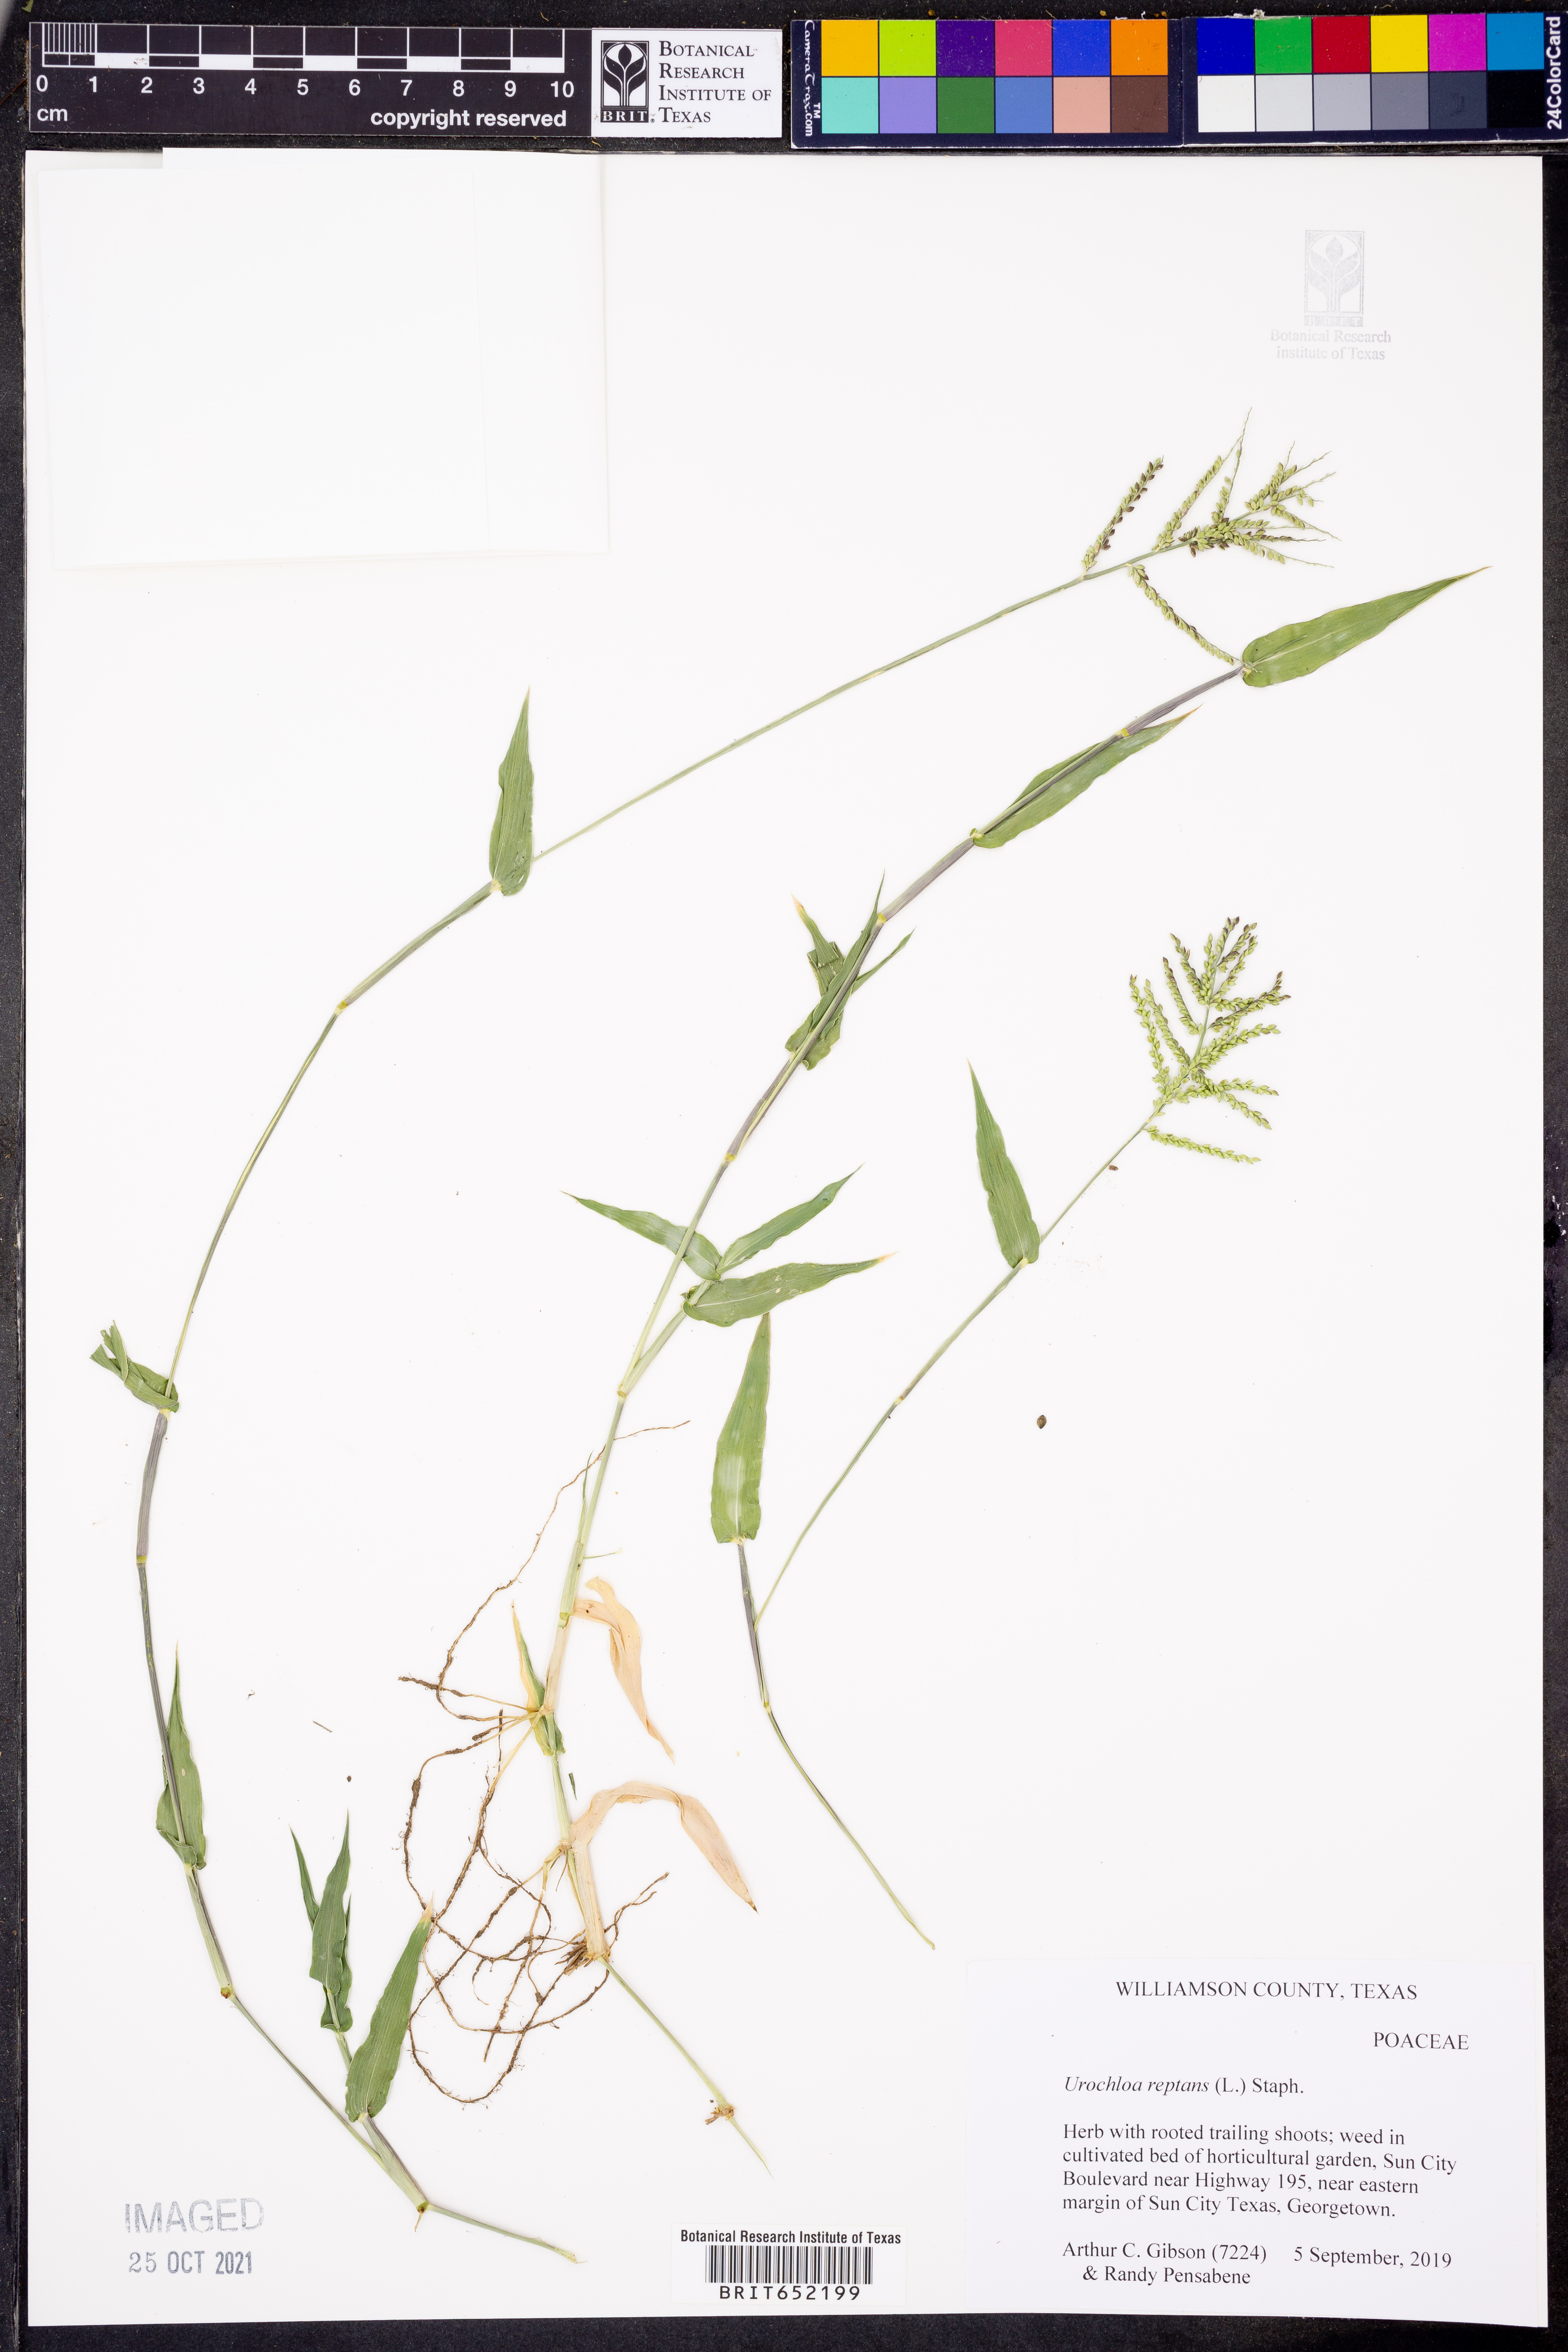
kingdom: Plantae
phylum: Tracheophyta
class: Liliopsida
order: Poales
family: Poaceae
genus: Urochloa
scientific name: Urochloa reptans
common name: Sprawling signalgrass
